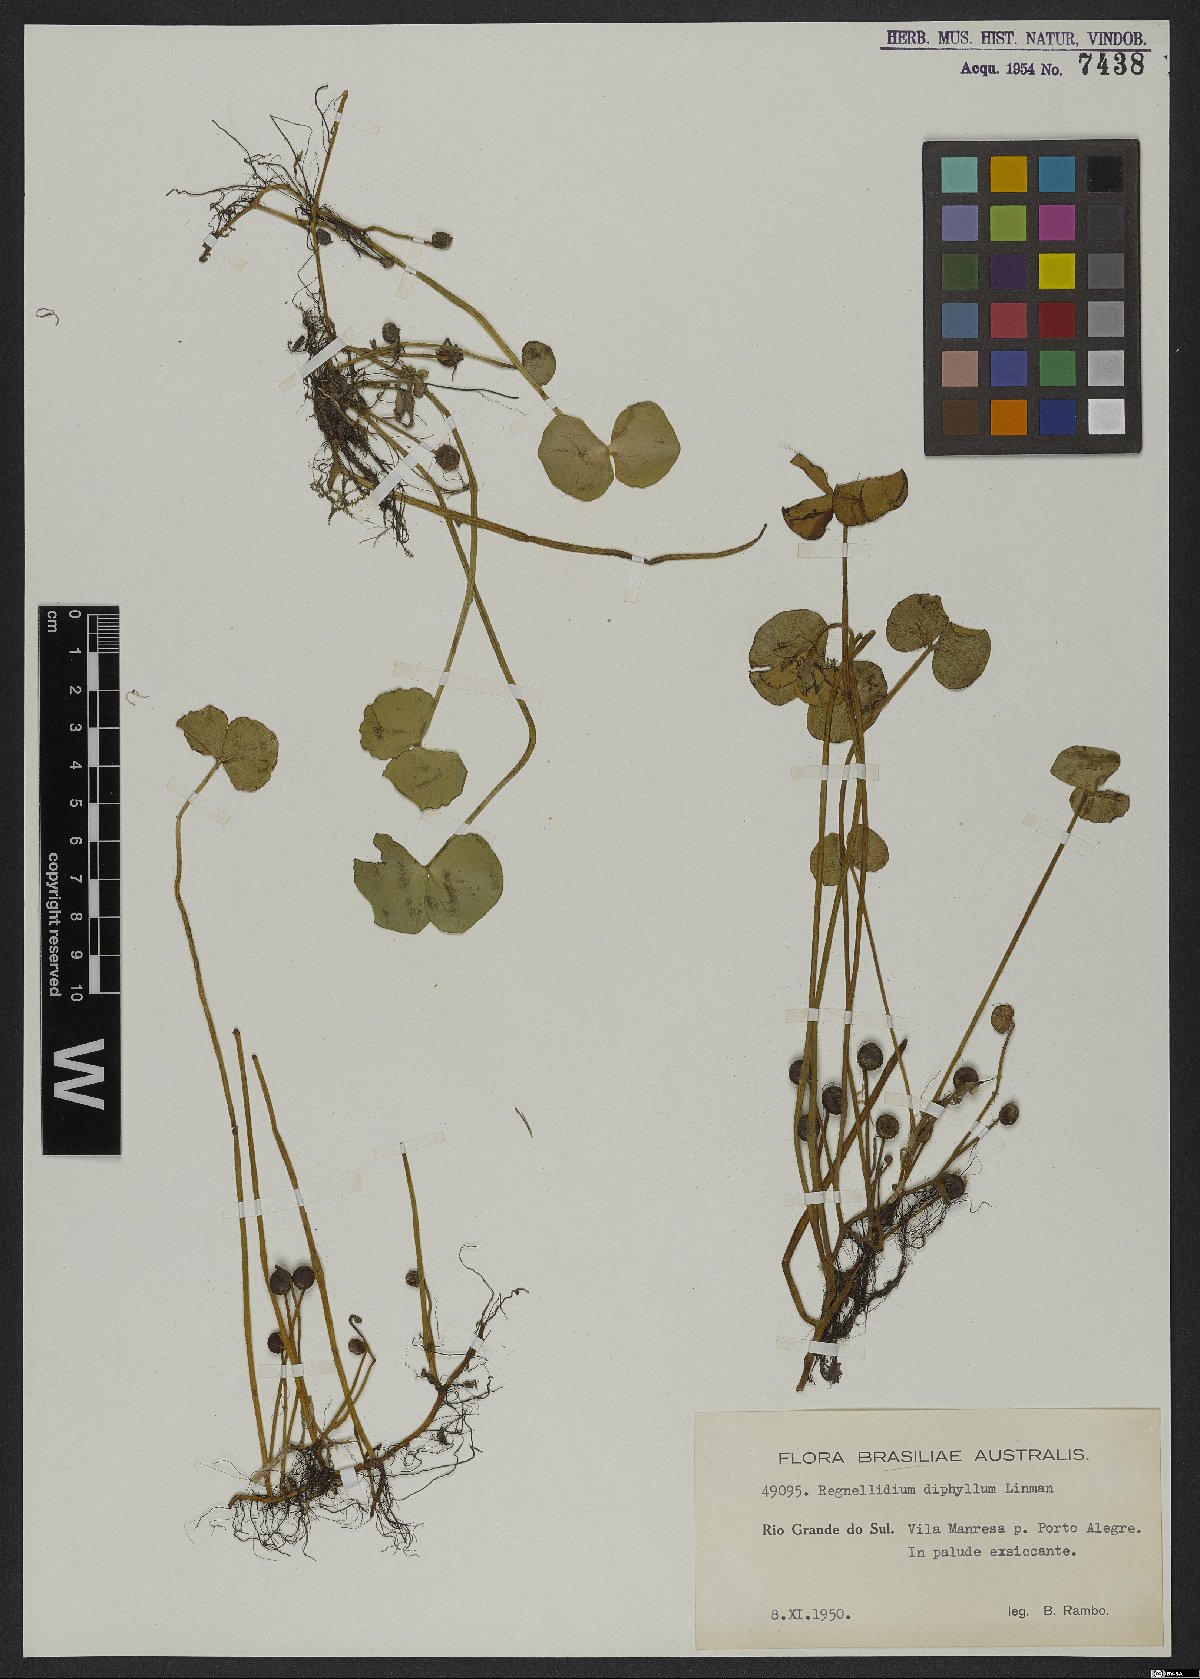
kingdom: Plantae
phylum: Tracheophyta
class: Polypodiopsida
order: Salviniales
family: Marsileaceae
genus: Regnellidium
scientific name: Regnellidium diphyllum
